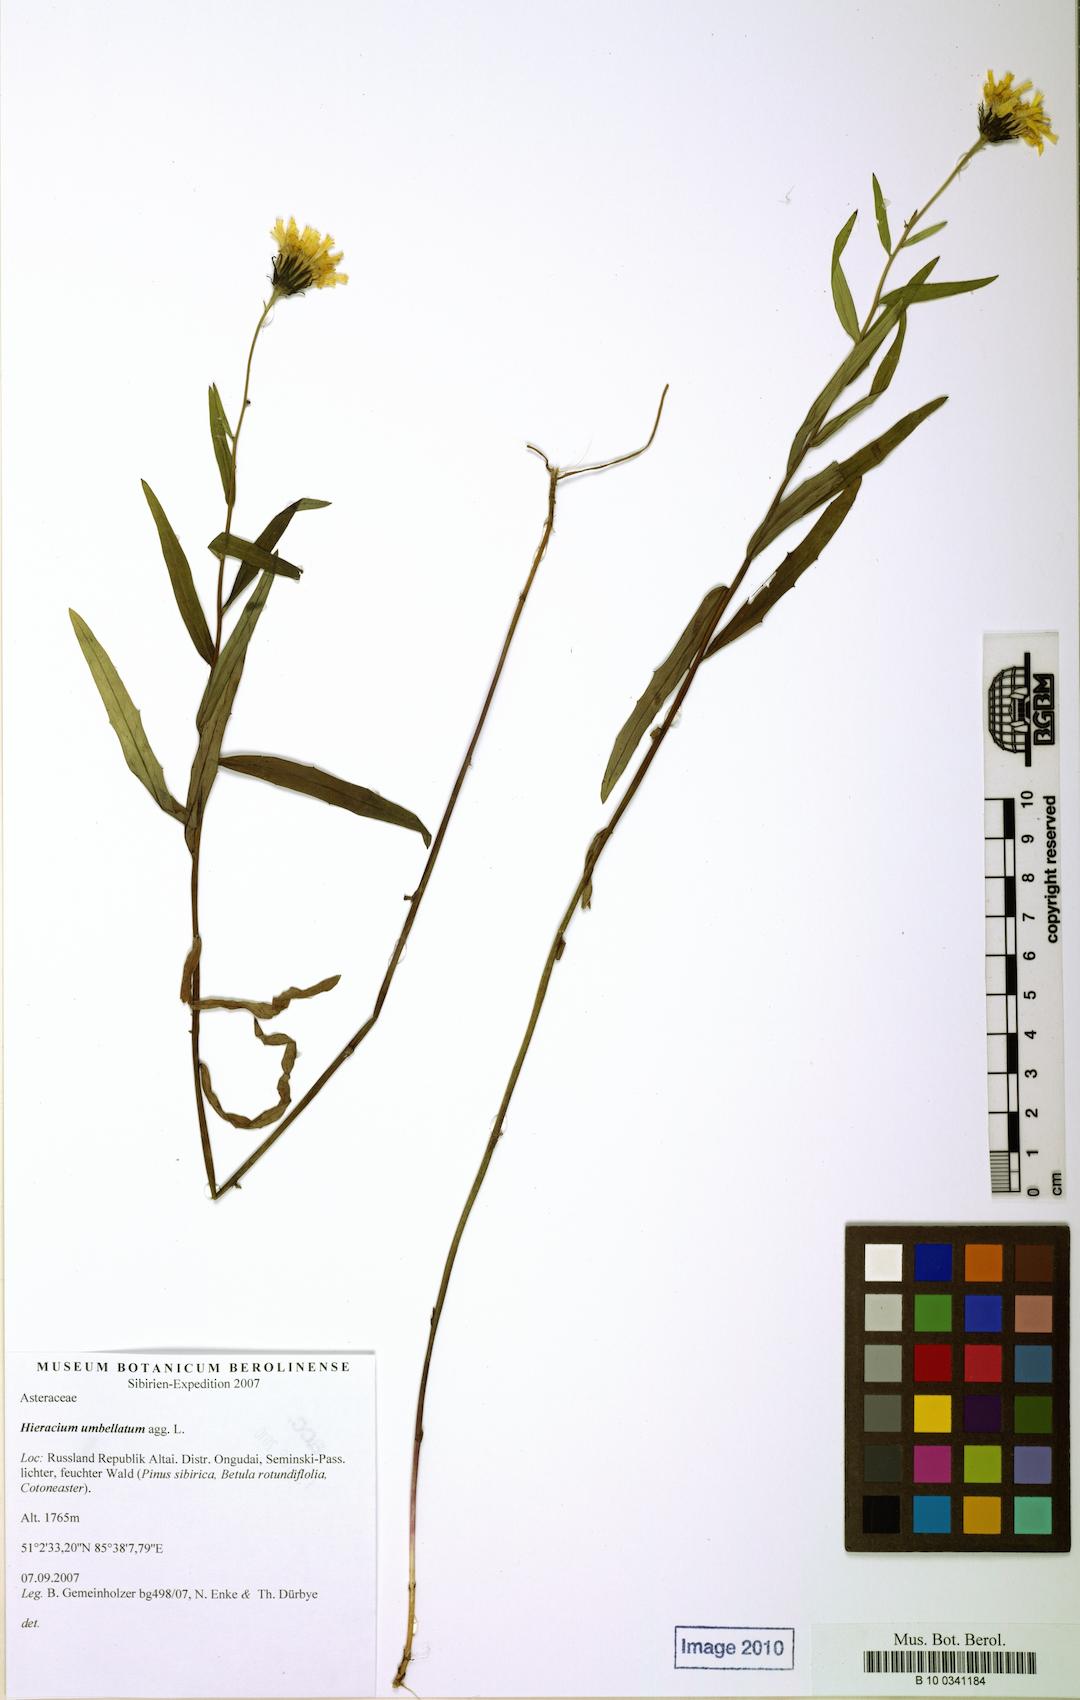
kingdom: Plantae
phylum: Tracheophyta
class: Magnoliopsida
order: Asterales
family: Asteraceae
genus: Hieracium
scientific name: Hieracium
